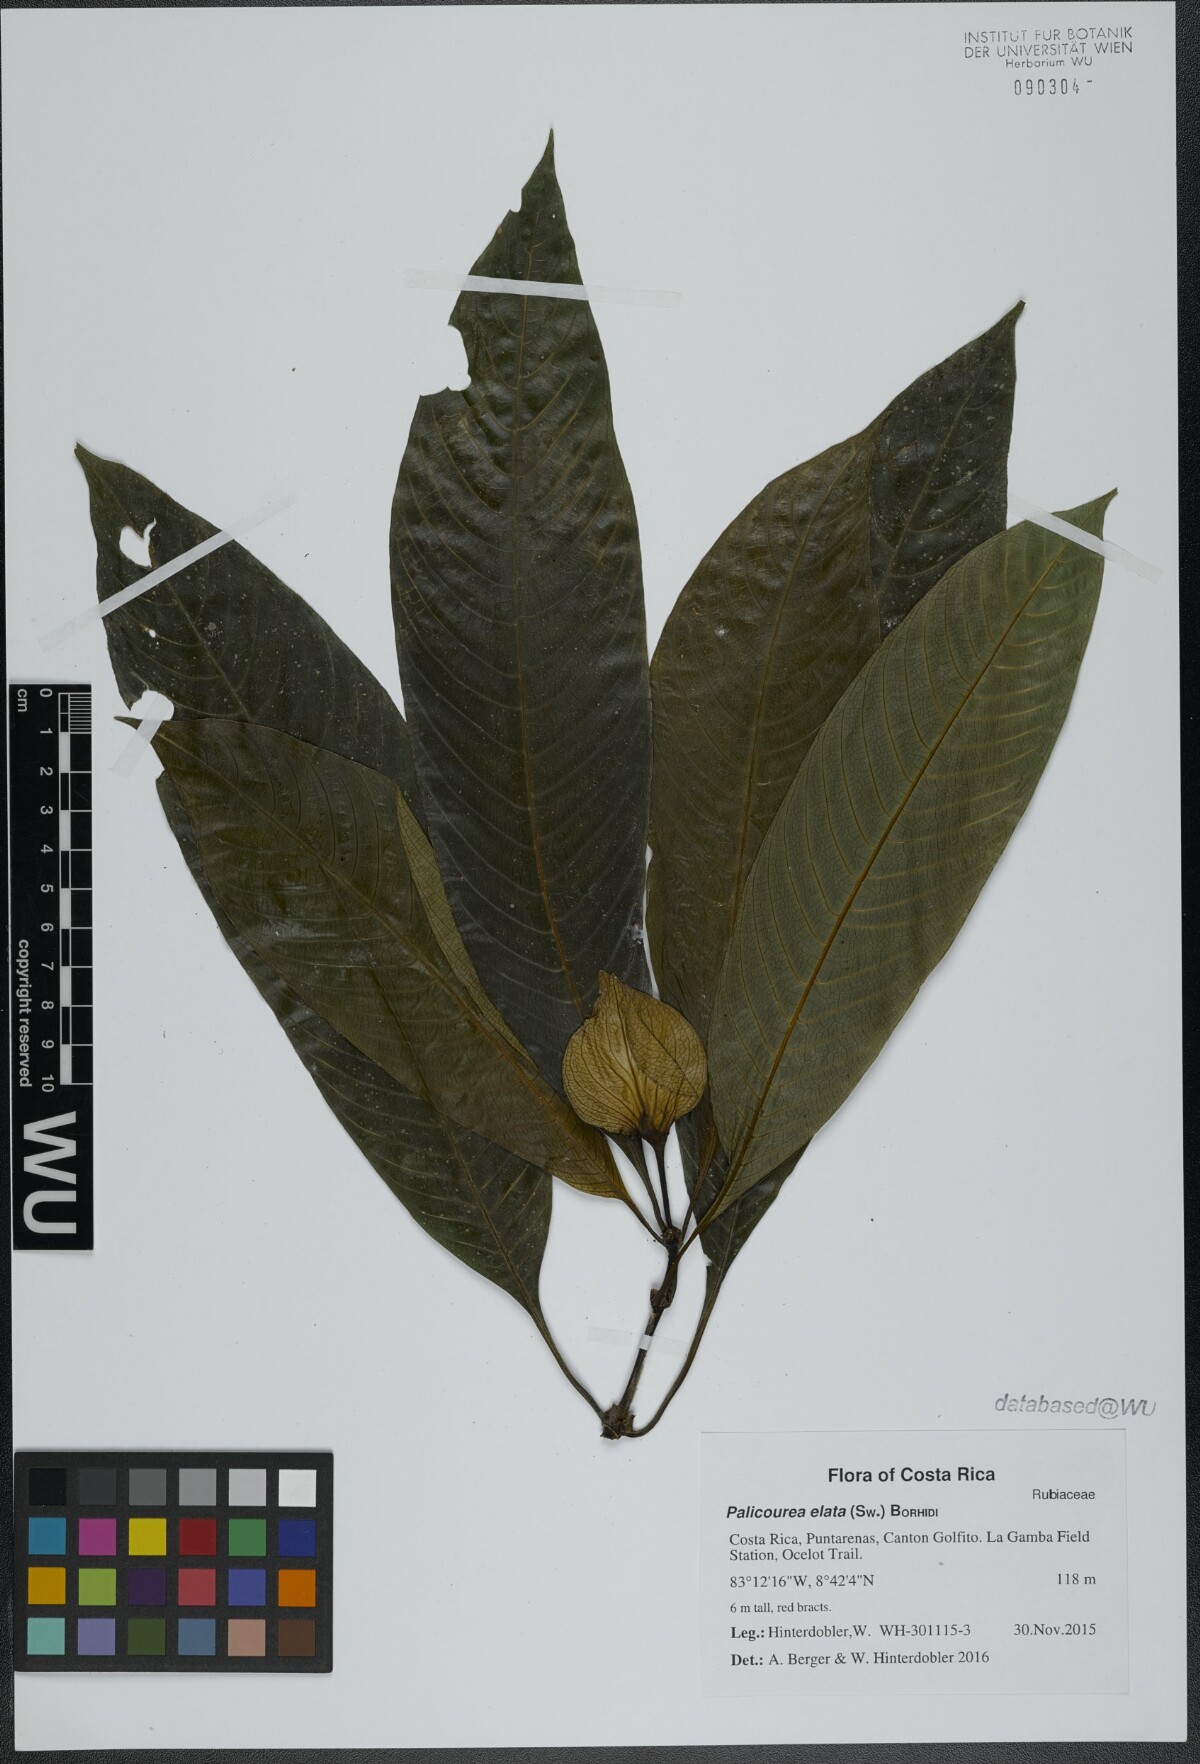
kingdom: Plantae
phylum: Tracheophyta
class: Magnoliopsida
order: Gentianales
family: Rubiaceae
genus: Palicourea
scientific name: Palicourea elata
